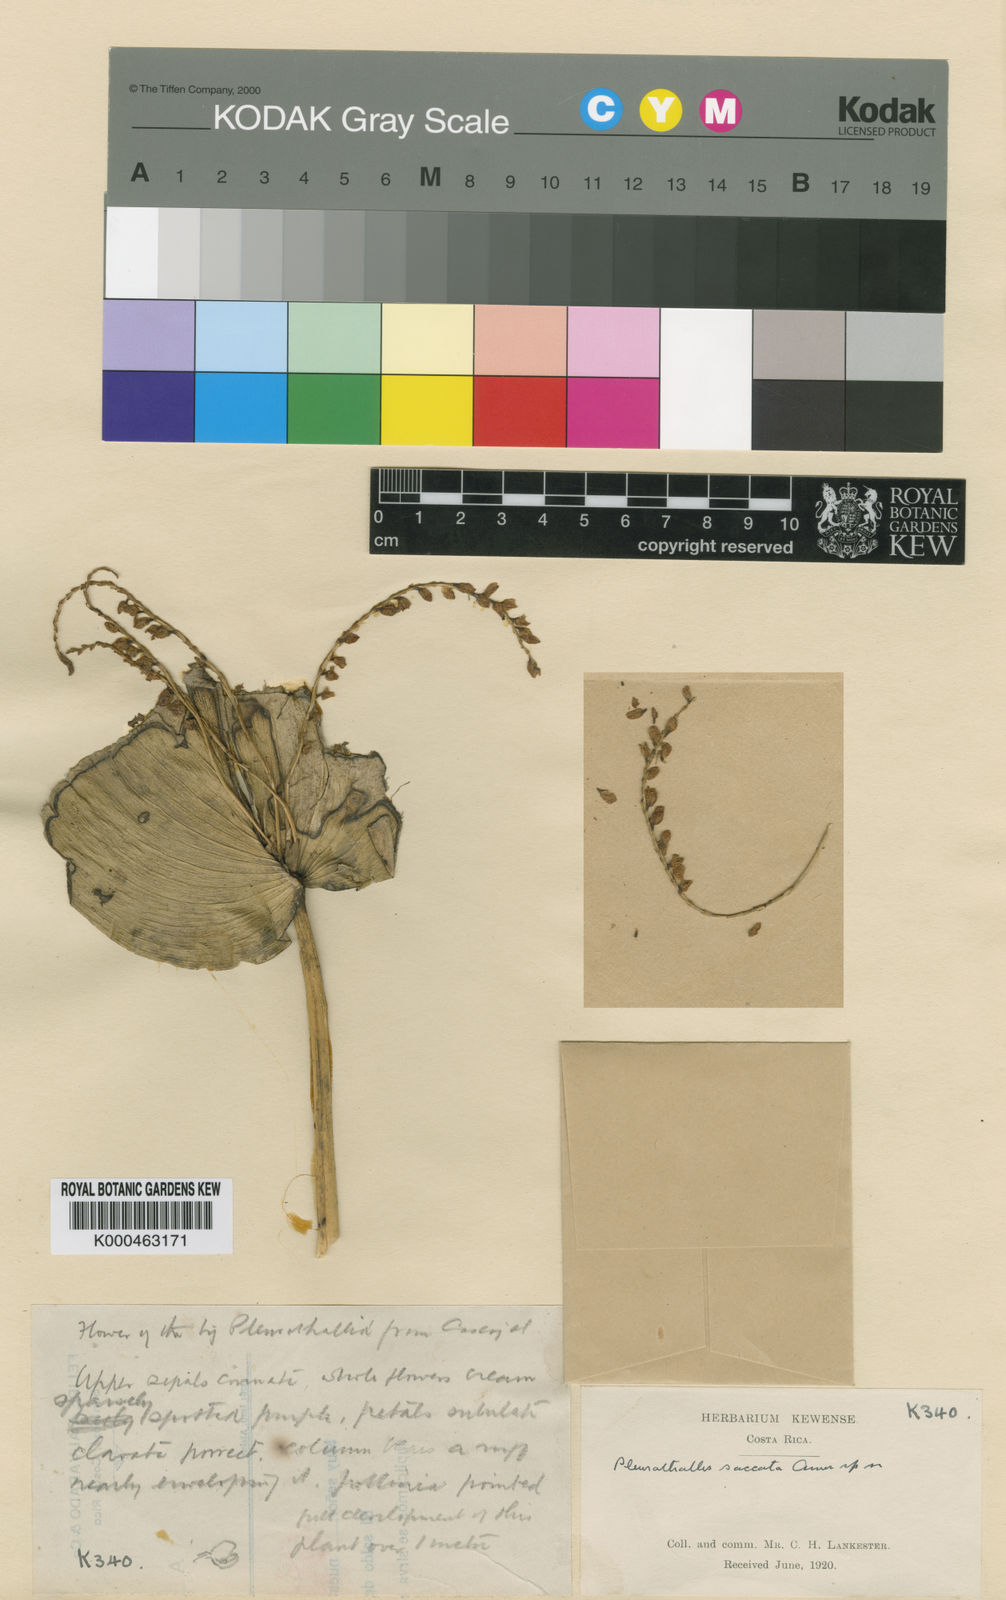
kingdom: Plantae
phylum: Tracheophyta
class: Liliopsida
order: Asparagales
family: Orchidaceae
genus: Pleurothallis
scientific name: Pleurothallis colossus
